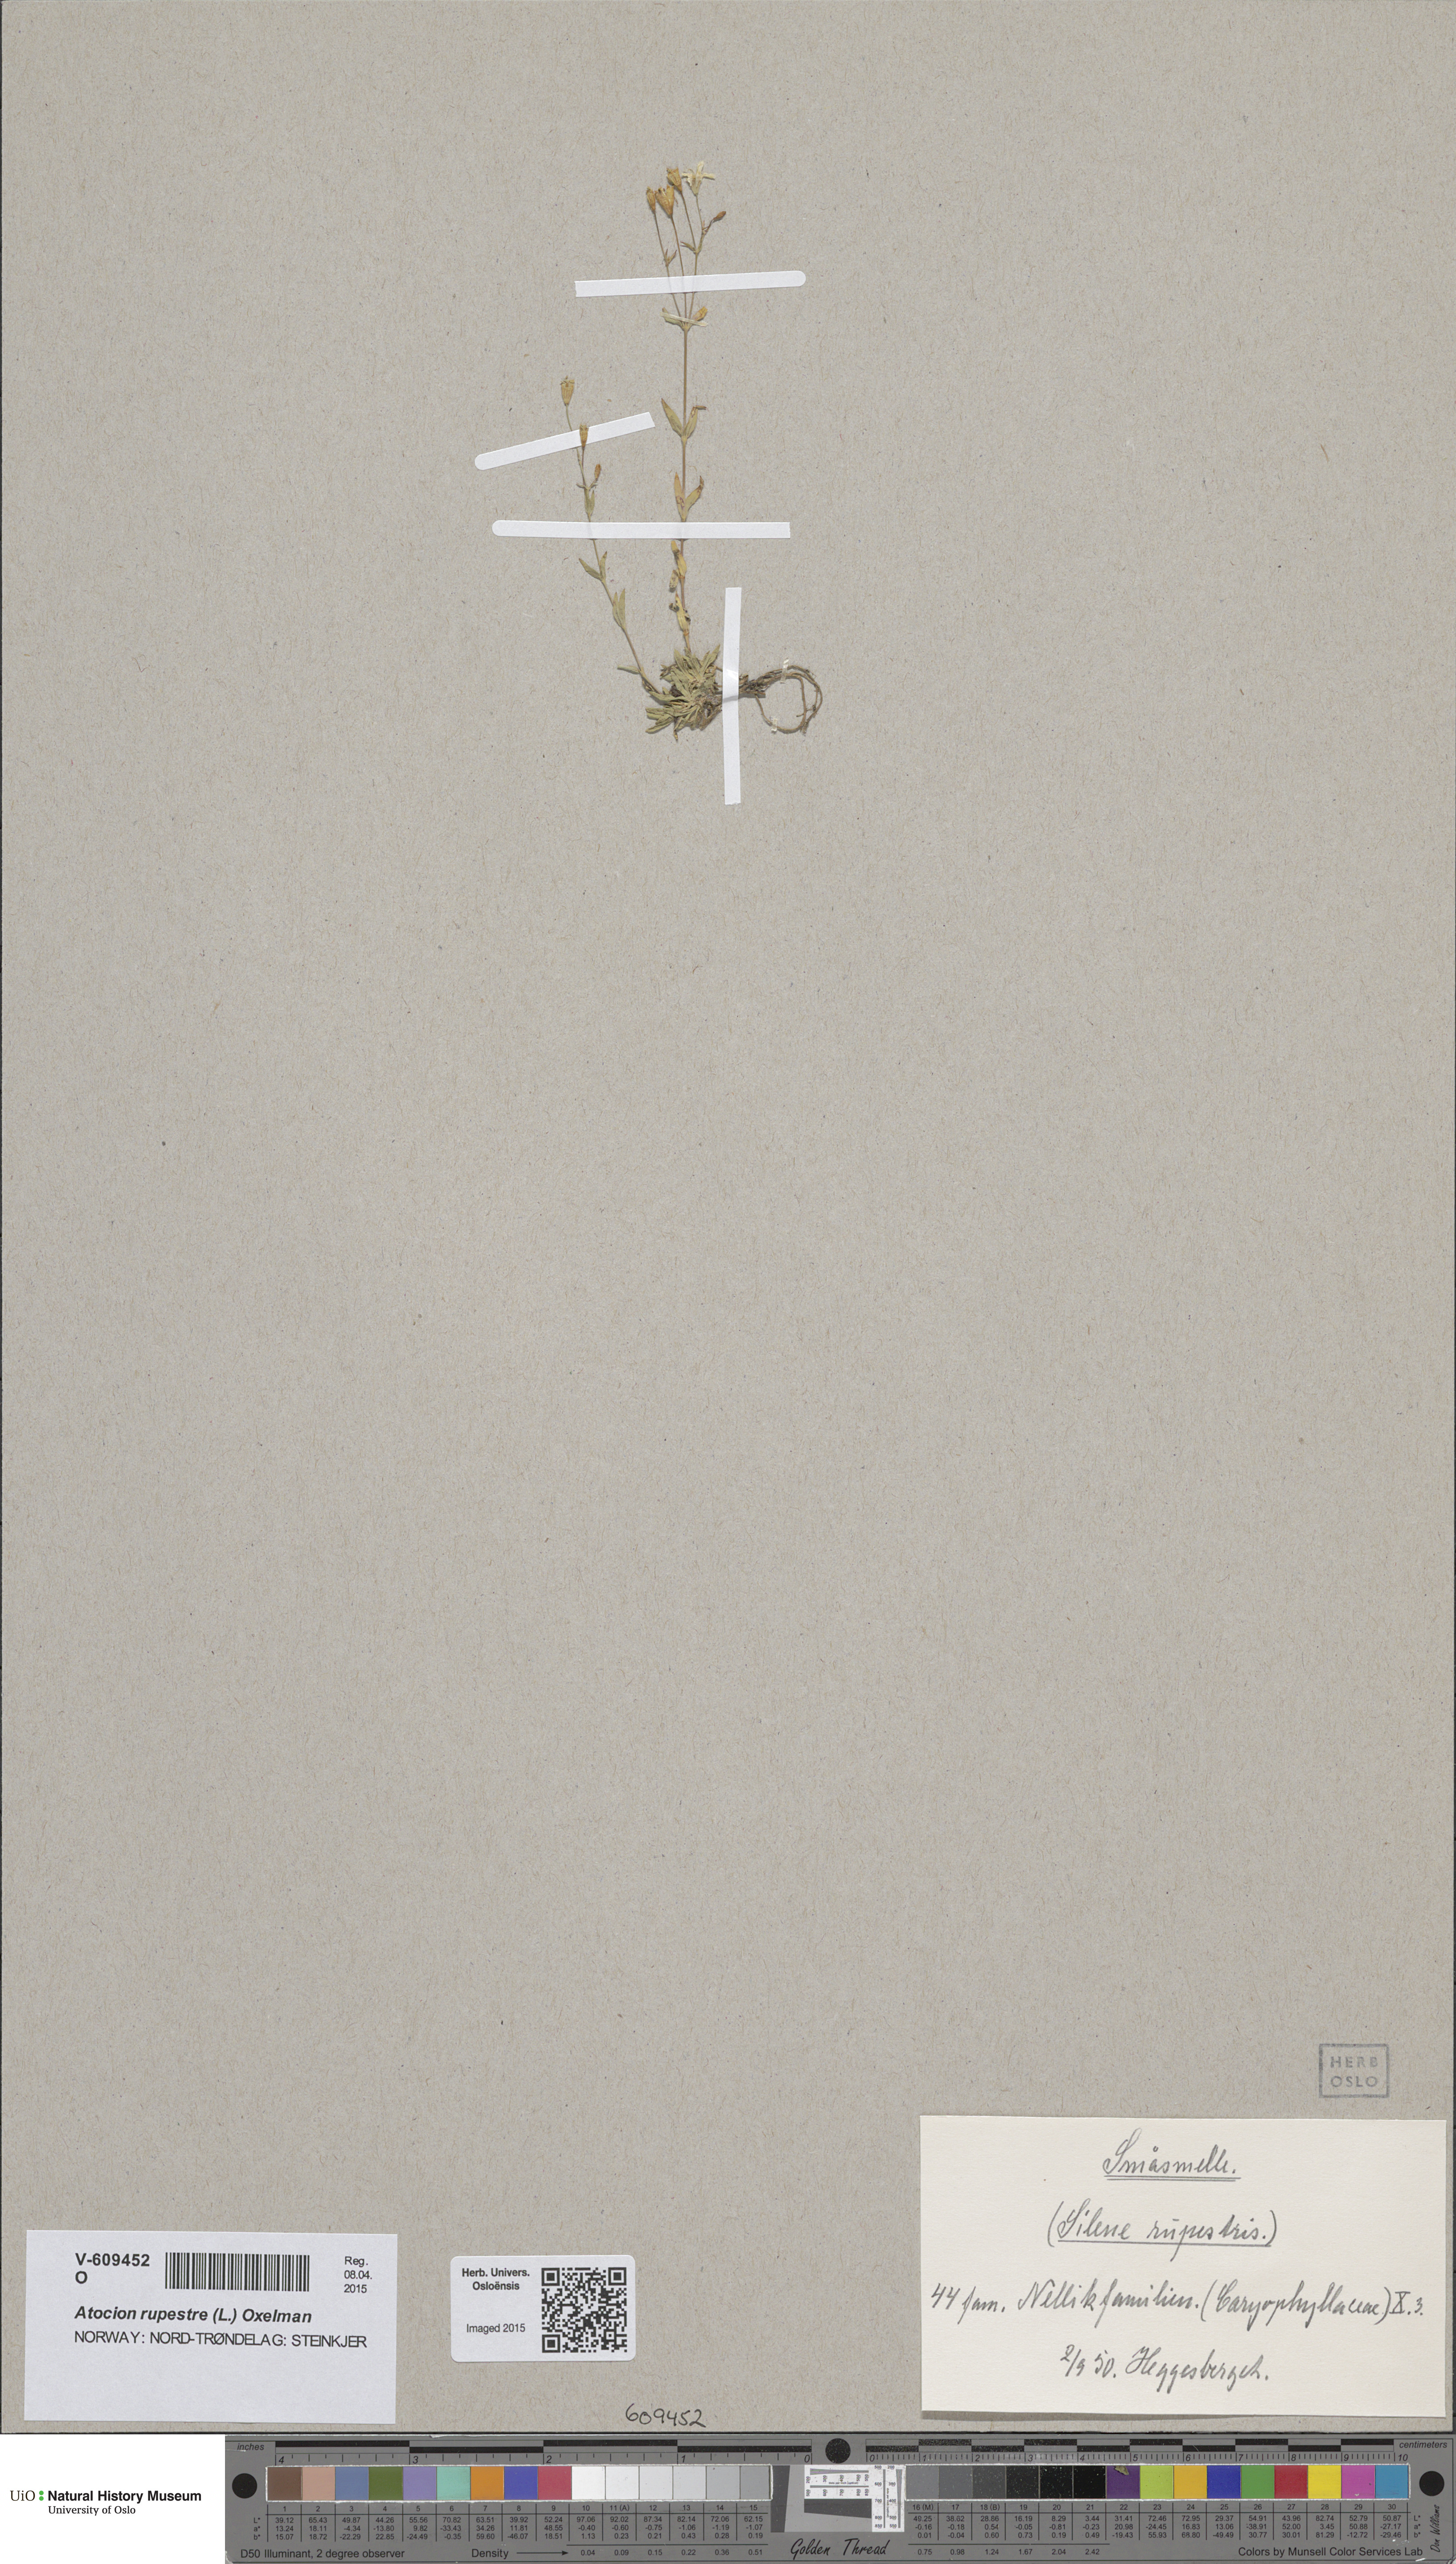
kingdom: Plantae
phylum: Tracheophyta
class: Magnoliopsida
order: Caryophyllales
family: Caryophyllaceae
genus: Atocion
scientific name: Atocion rupestre
